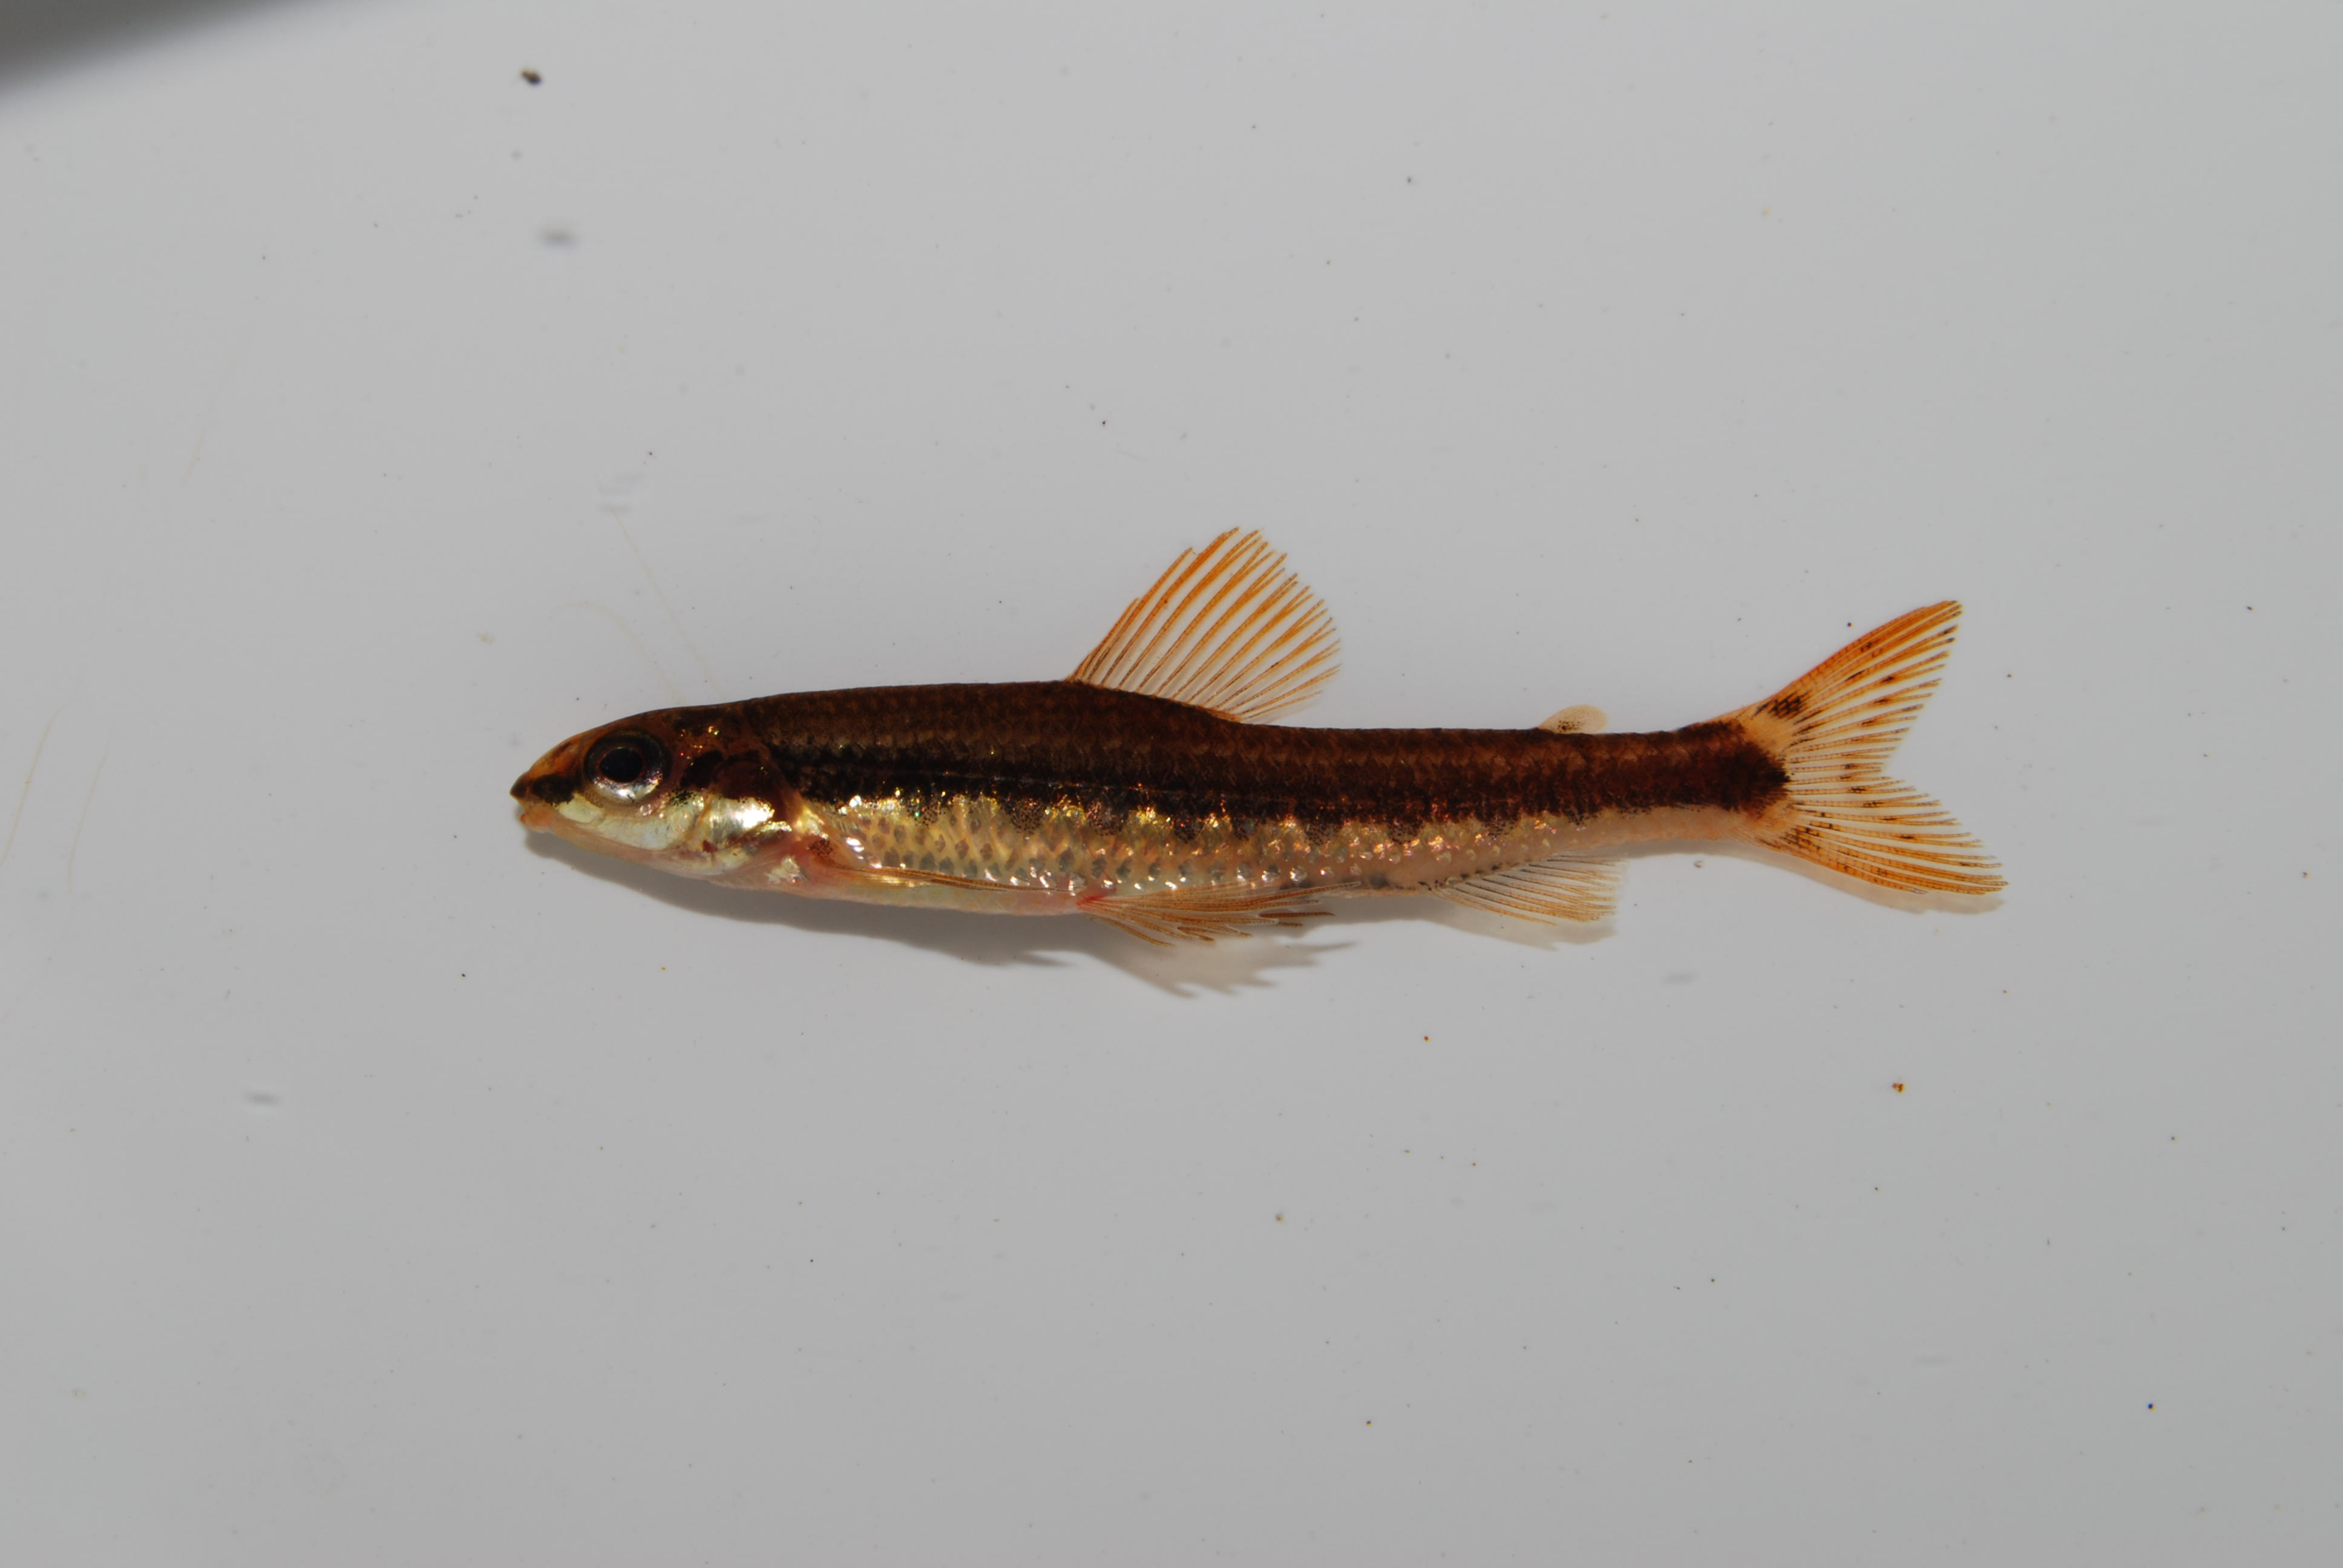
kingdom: Animalia
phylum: Chordata
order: Characiformes
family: Distichodontidae
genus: Nannocharax
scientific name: Nannocharax lineostriatus
